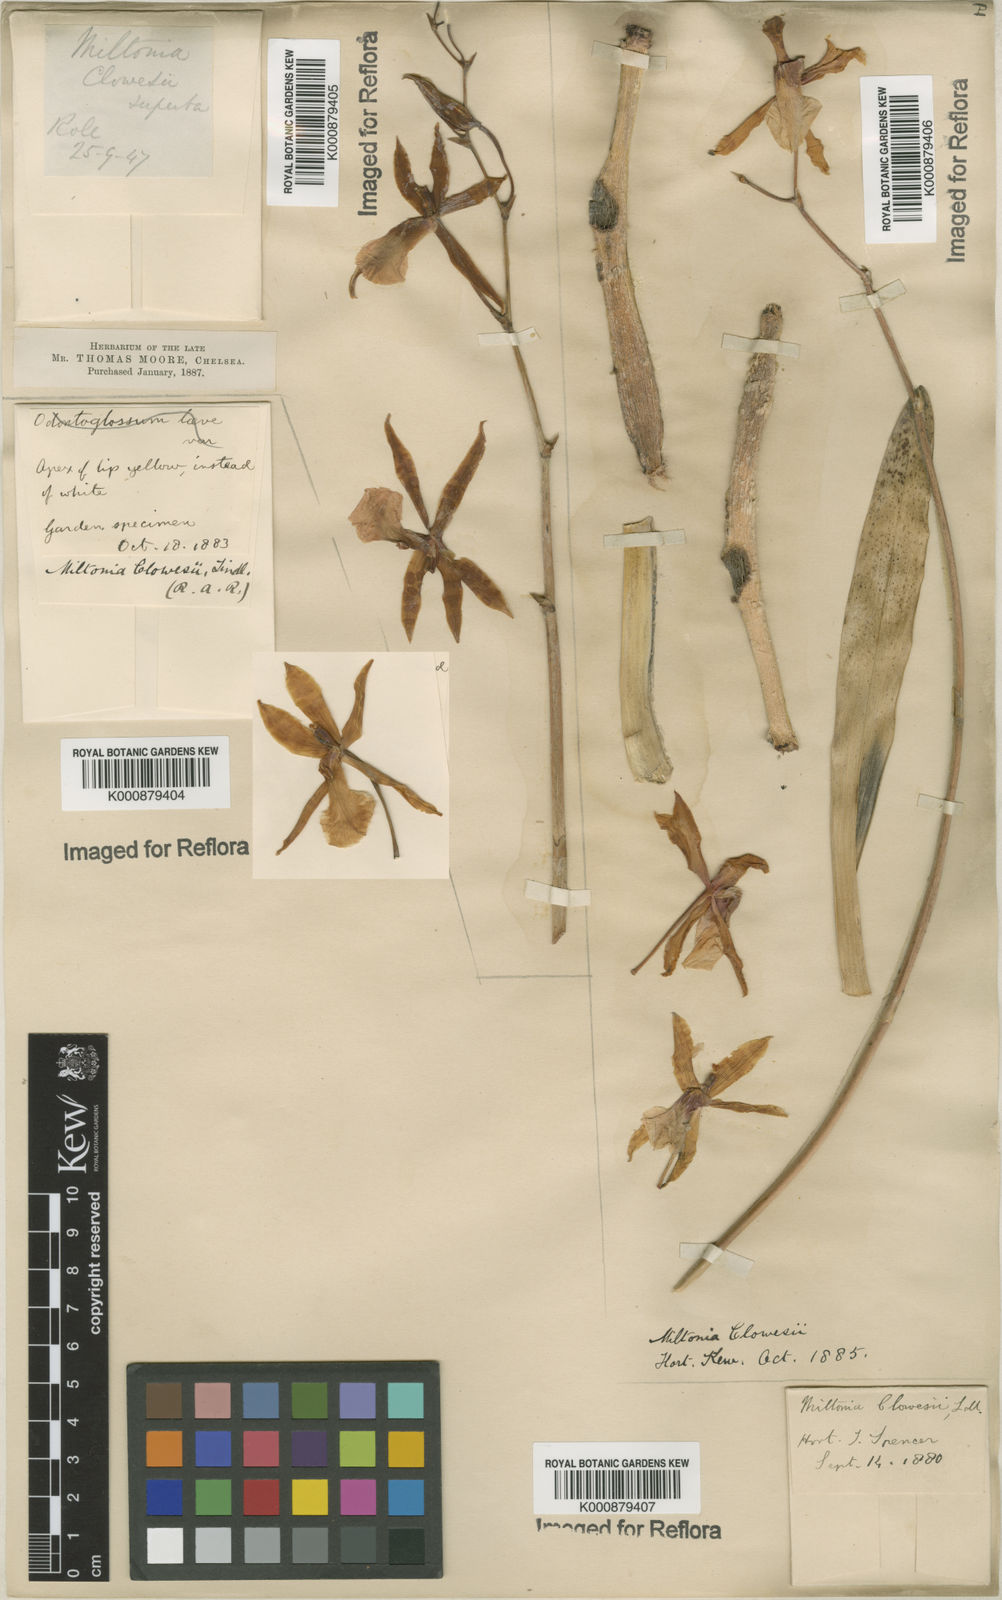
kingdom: Plantae
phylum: Tracheophyta
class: Liliopsida
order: Asparagales
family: Orchidaceae
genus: Miltonia
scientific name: Miltonia clowesii
